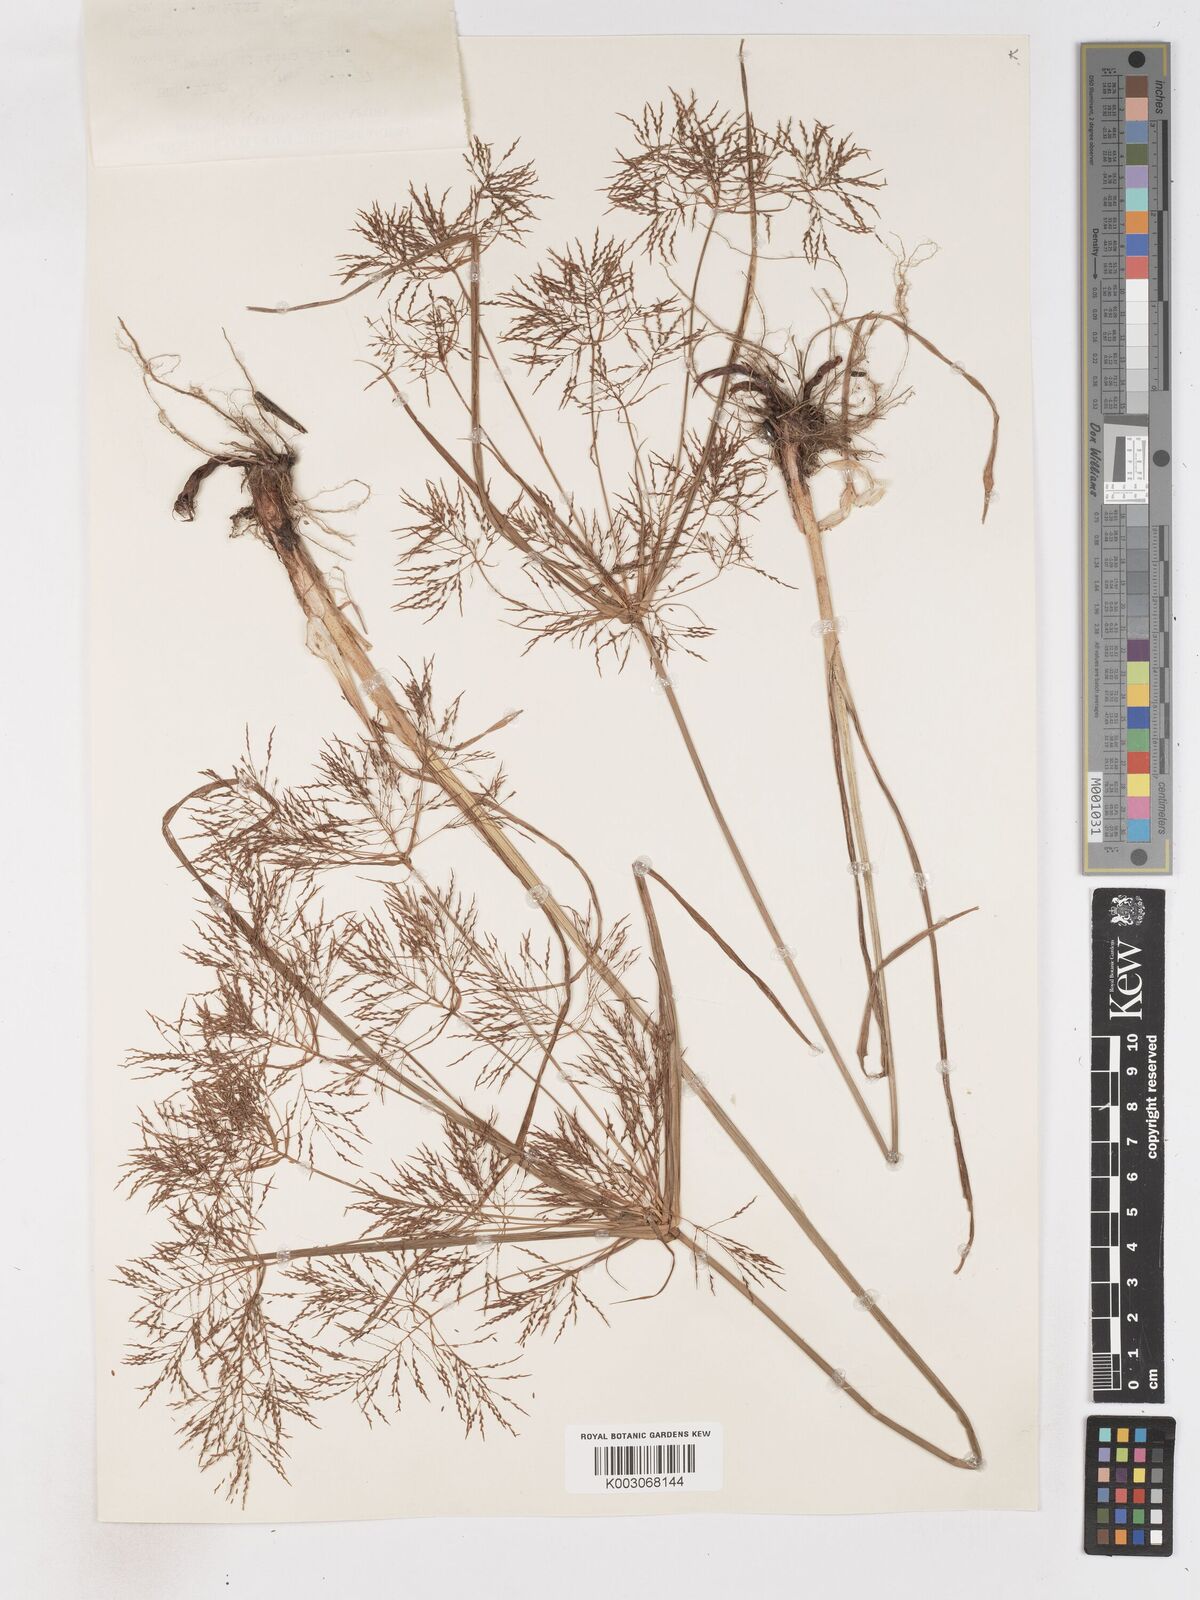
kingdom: Plantae
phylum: Tracheophyta
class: Liliopsida
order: Poales
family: Cyperaceae
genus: Cyperus
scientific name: Cyperus distans
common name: Slender cyperus
